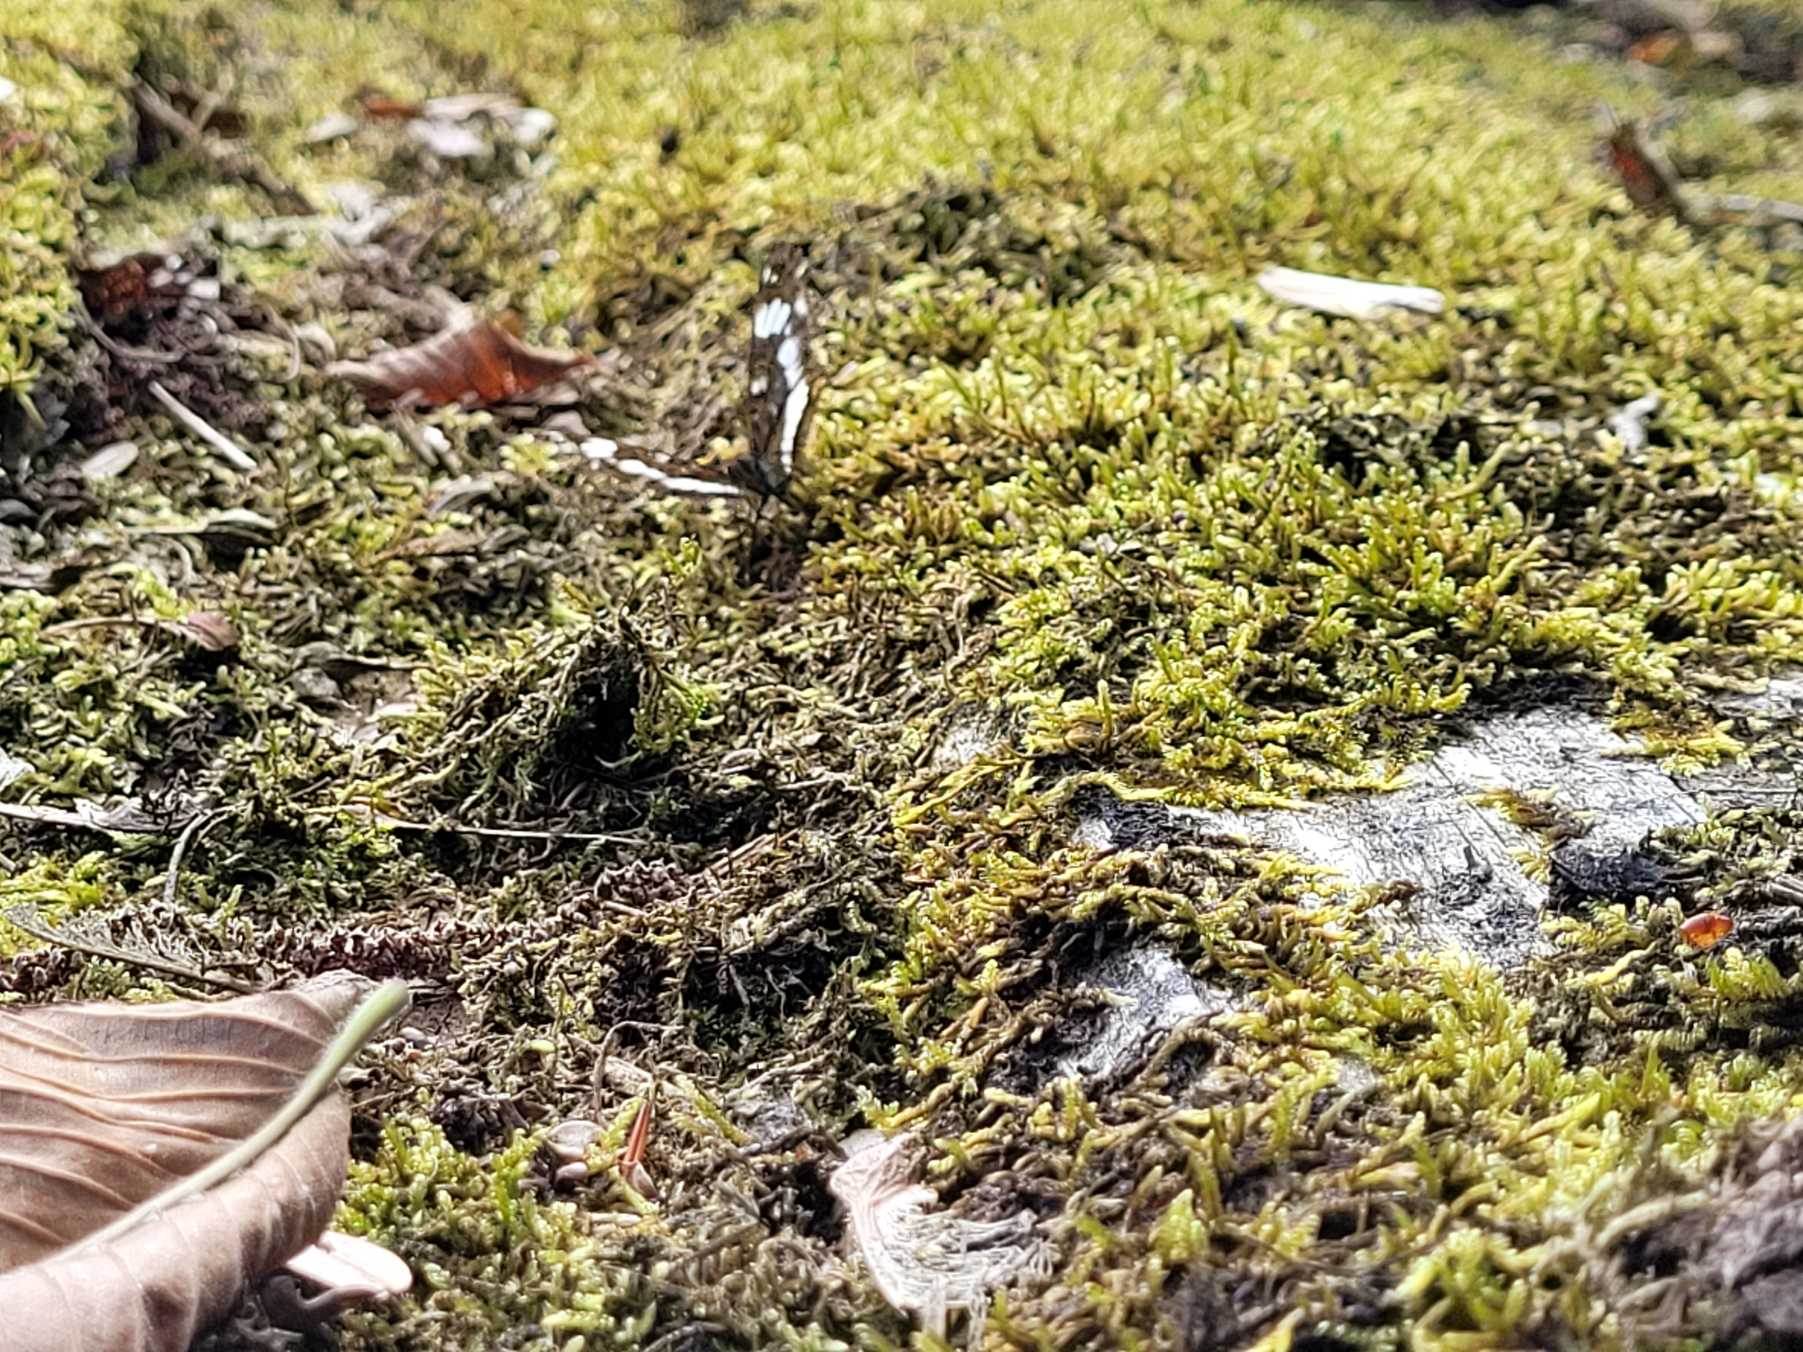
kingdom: Animalia
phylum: Arthropoda
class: Insecta
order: Lepidoptera
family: Nymphalidae
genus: Ladoga
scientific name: Ladoga camilla
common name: Hvid admiral
